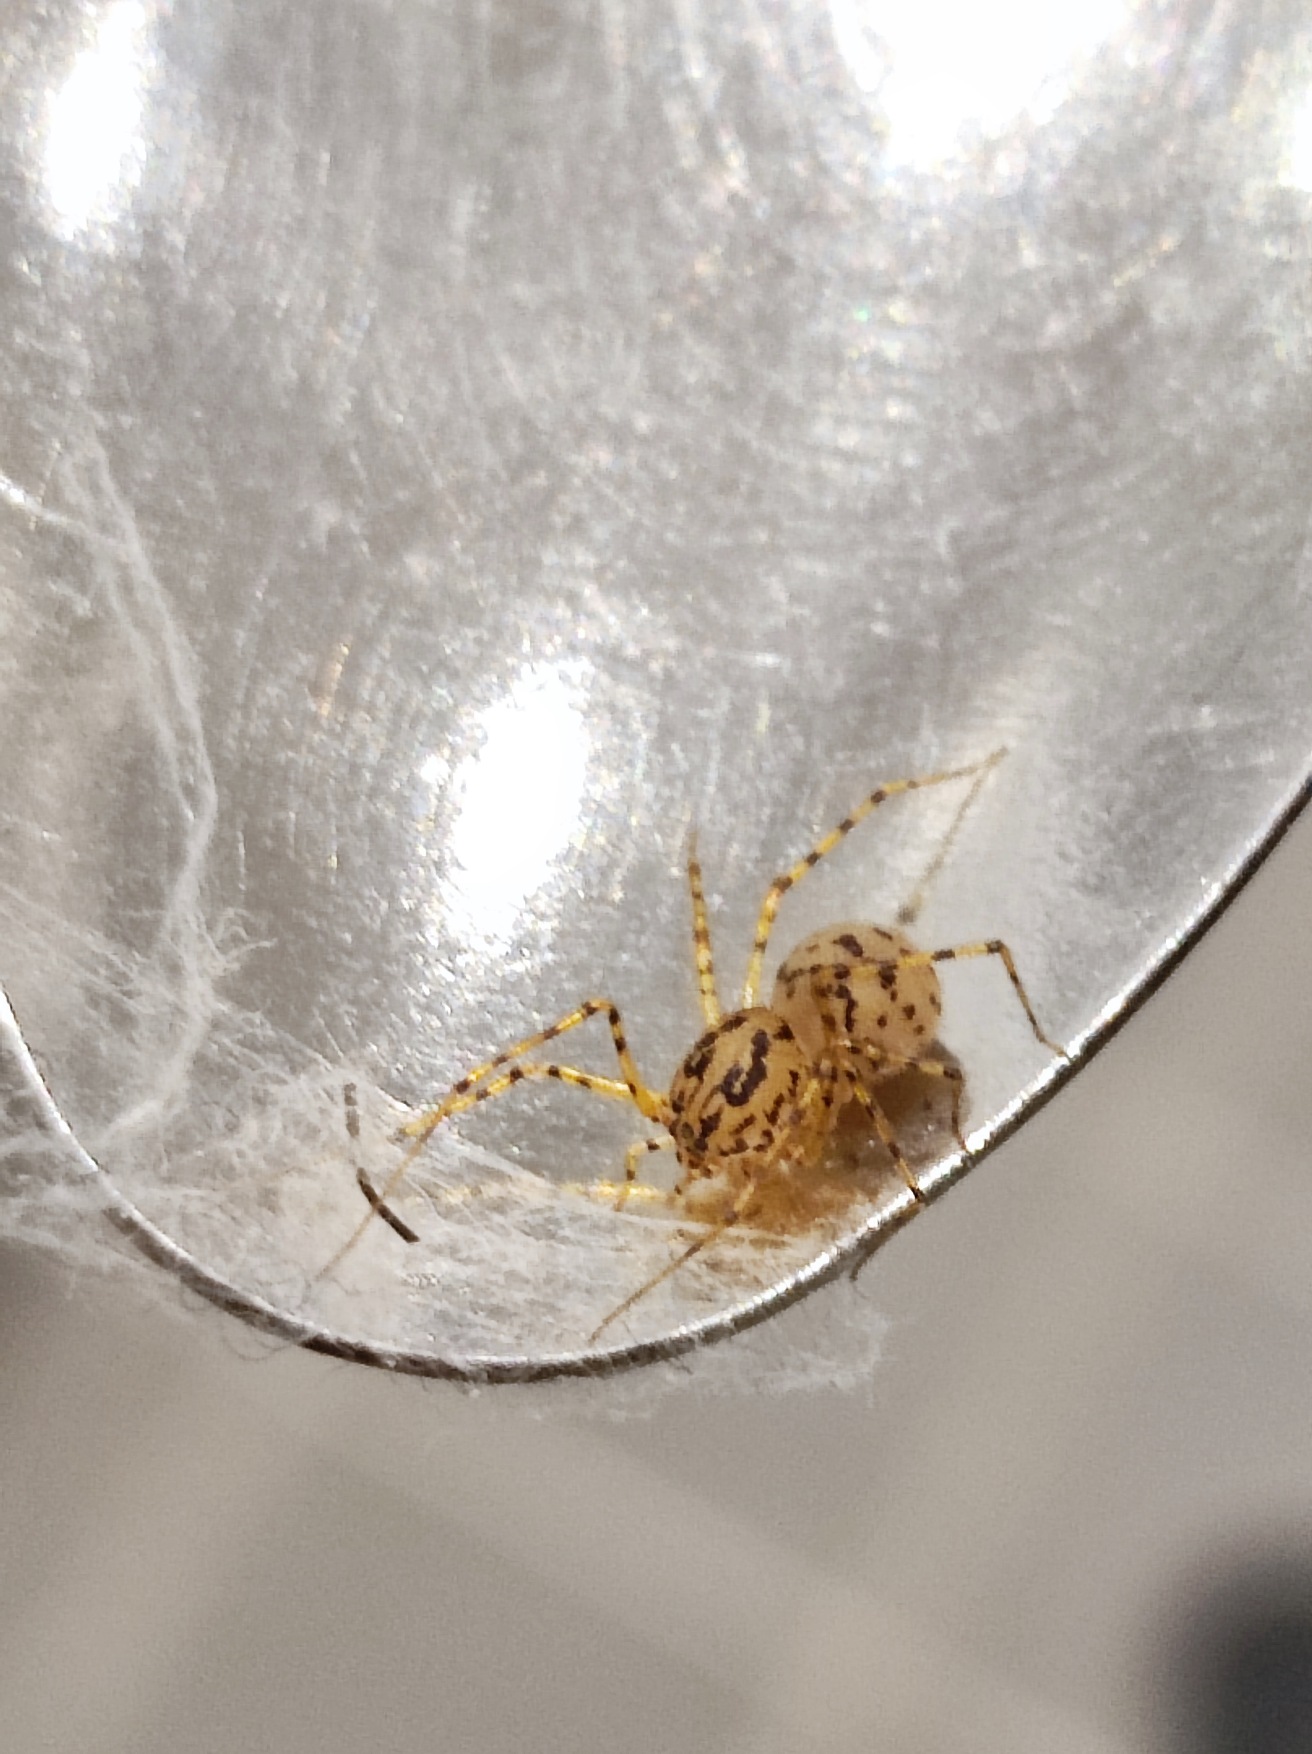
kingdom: Animalia
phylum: Arthropoda
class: Arachnida
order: Araneae
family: Scytodidae
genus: Scytodes
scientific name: Scytodes thoracica
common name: Spytteedderkop
